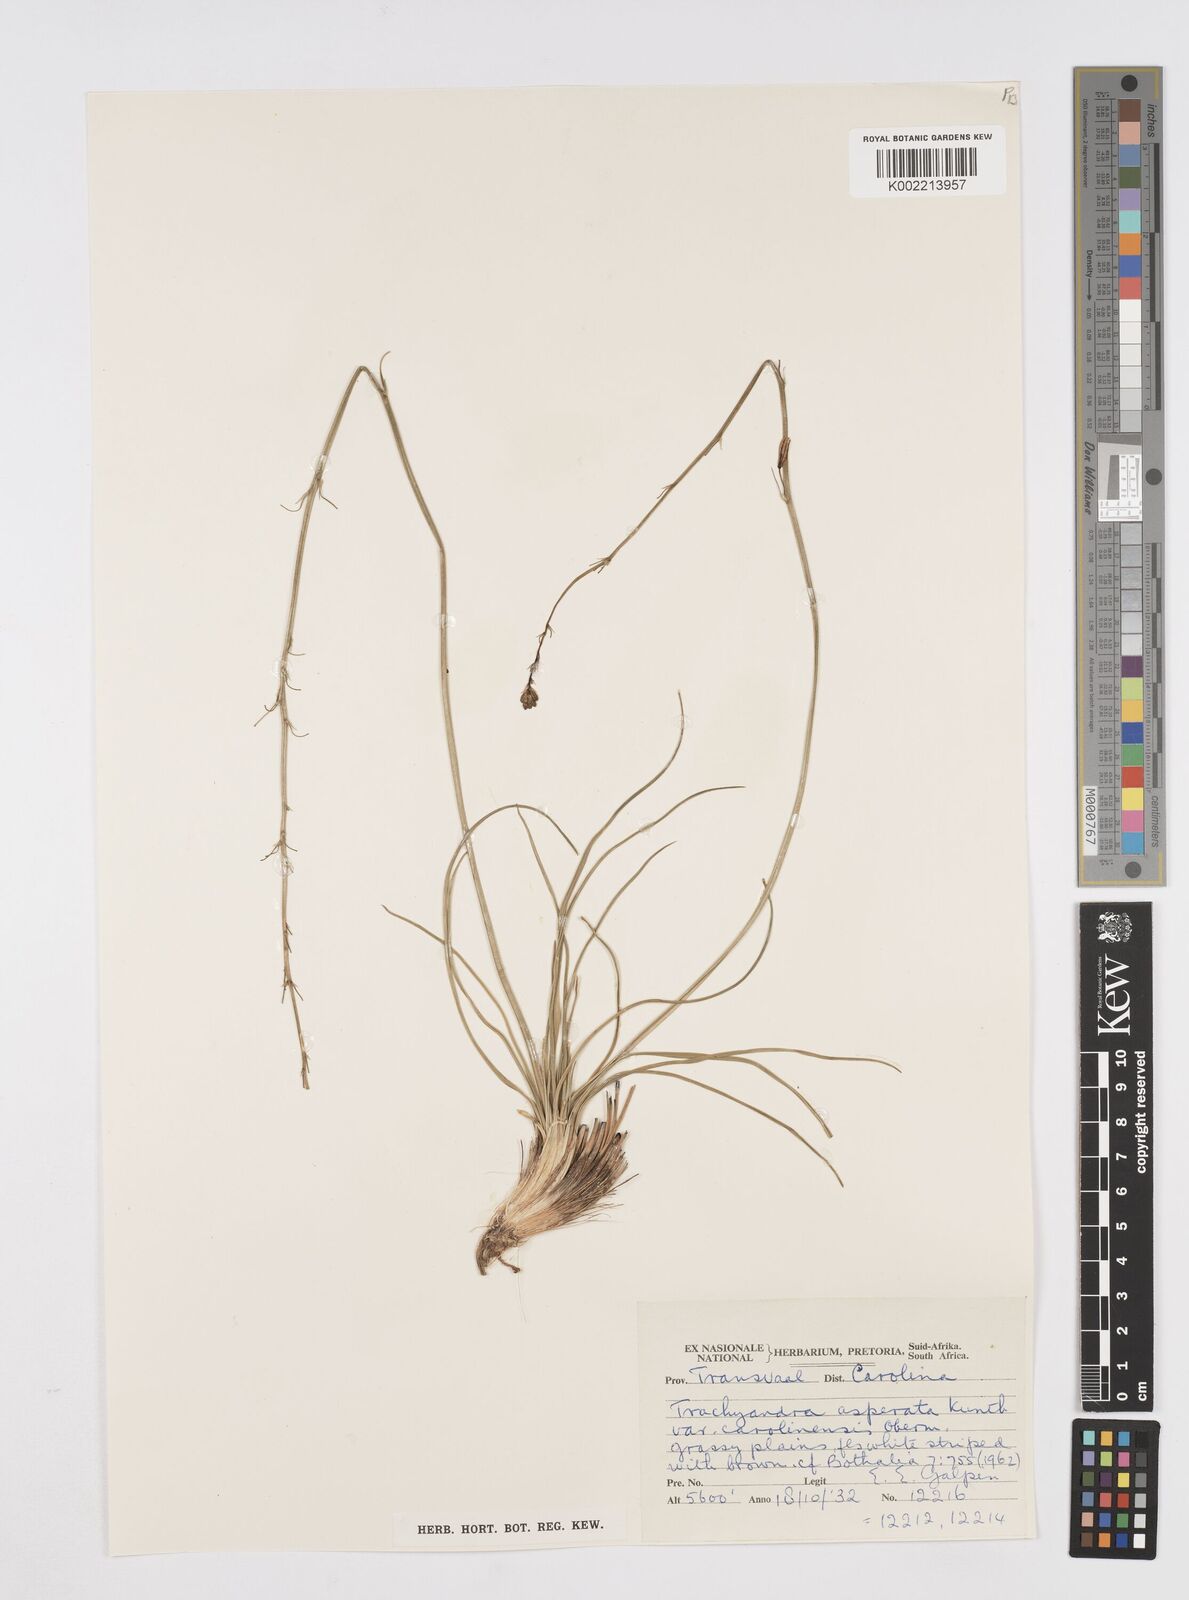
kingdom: Plantae
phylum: Tracheophyta
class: Liliopsida
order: Asparagales
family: Asphodelaceae
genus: Trachyandra
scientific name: Trachyandra asperata
